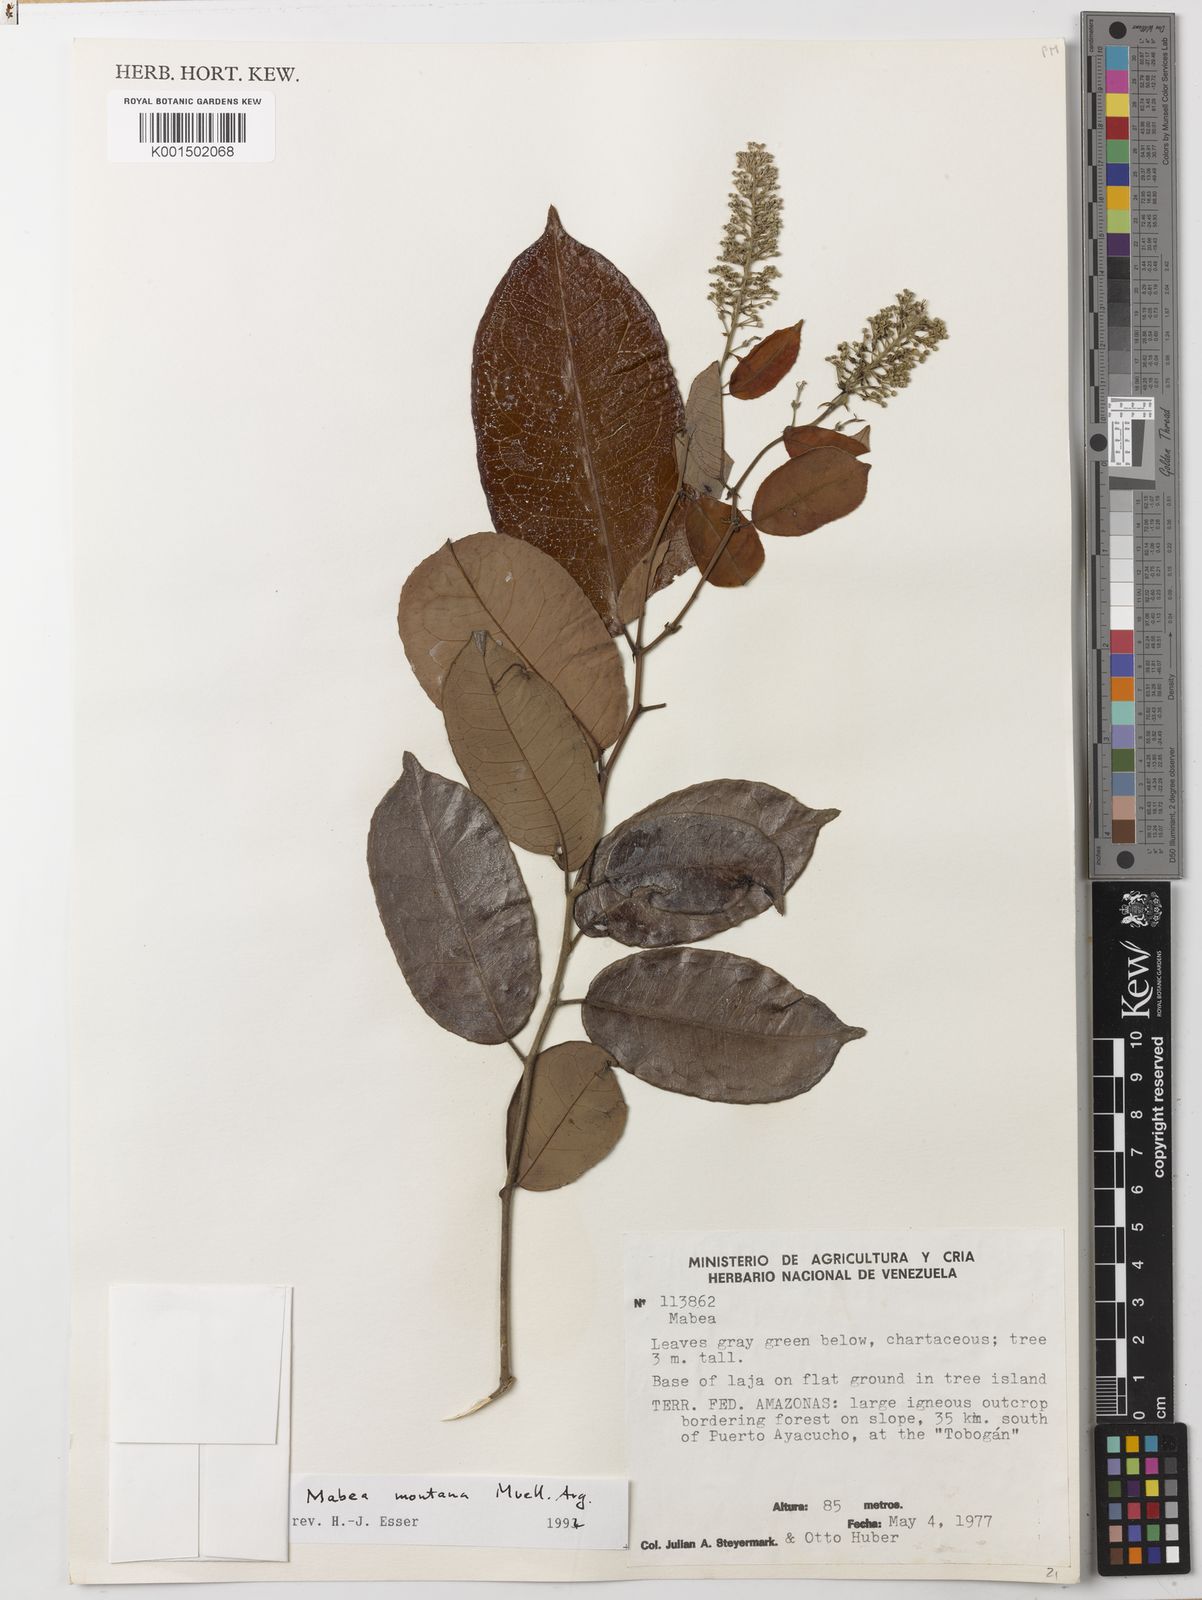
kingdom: Plantae
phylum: Tracheophyta
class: Magnoliopsida
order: Malpighiales
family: Euphorbiaceae
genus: Mabea
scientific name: Mabea montana
